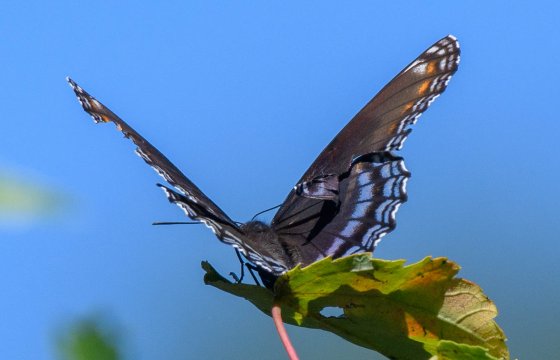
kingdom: Animalia
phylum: Arthropoda
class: Insecta
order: Lepidoptera
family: Nymphalidae
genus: Limenitis
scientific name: Limenitis arthemis
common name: Red-spotted Admiral
